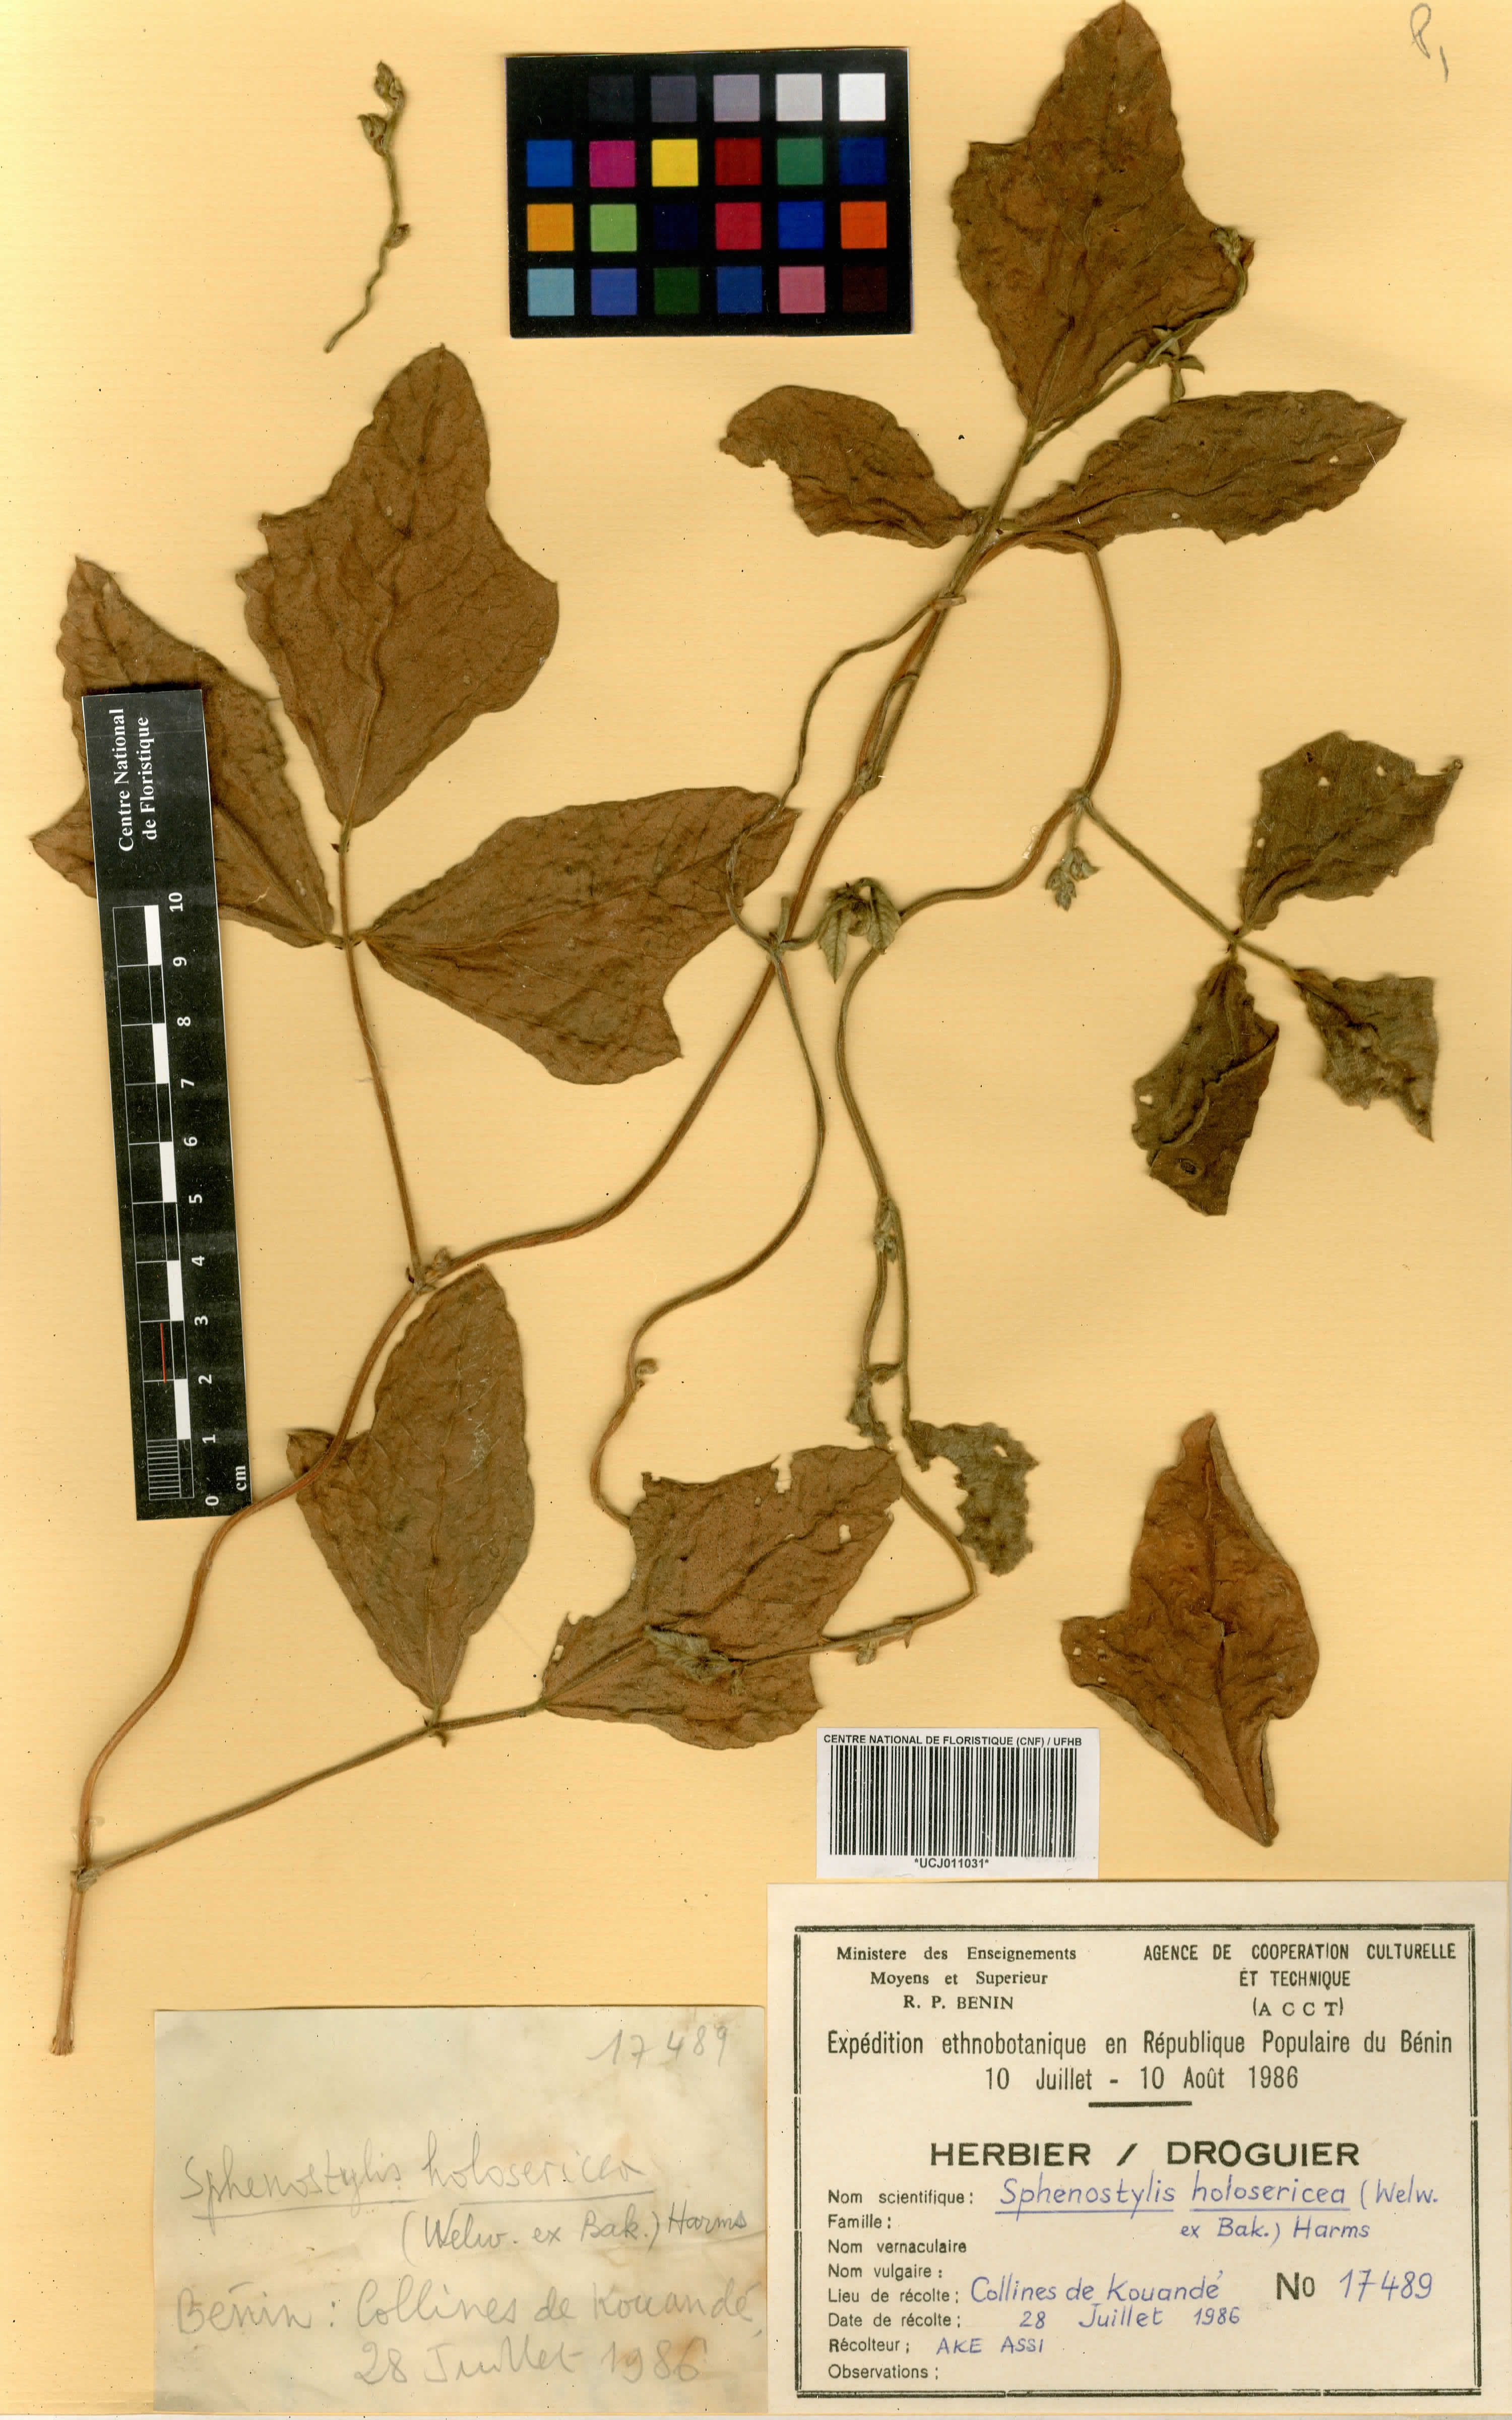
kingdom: Plantae
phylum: Tracheophyta
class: Magnoliopsida
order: Fabales
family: Fabaceae
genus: Nesphostylis
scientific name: Nesphostylis holosericea
